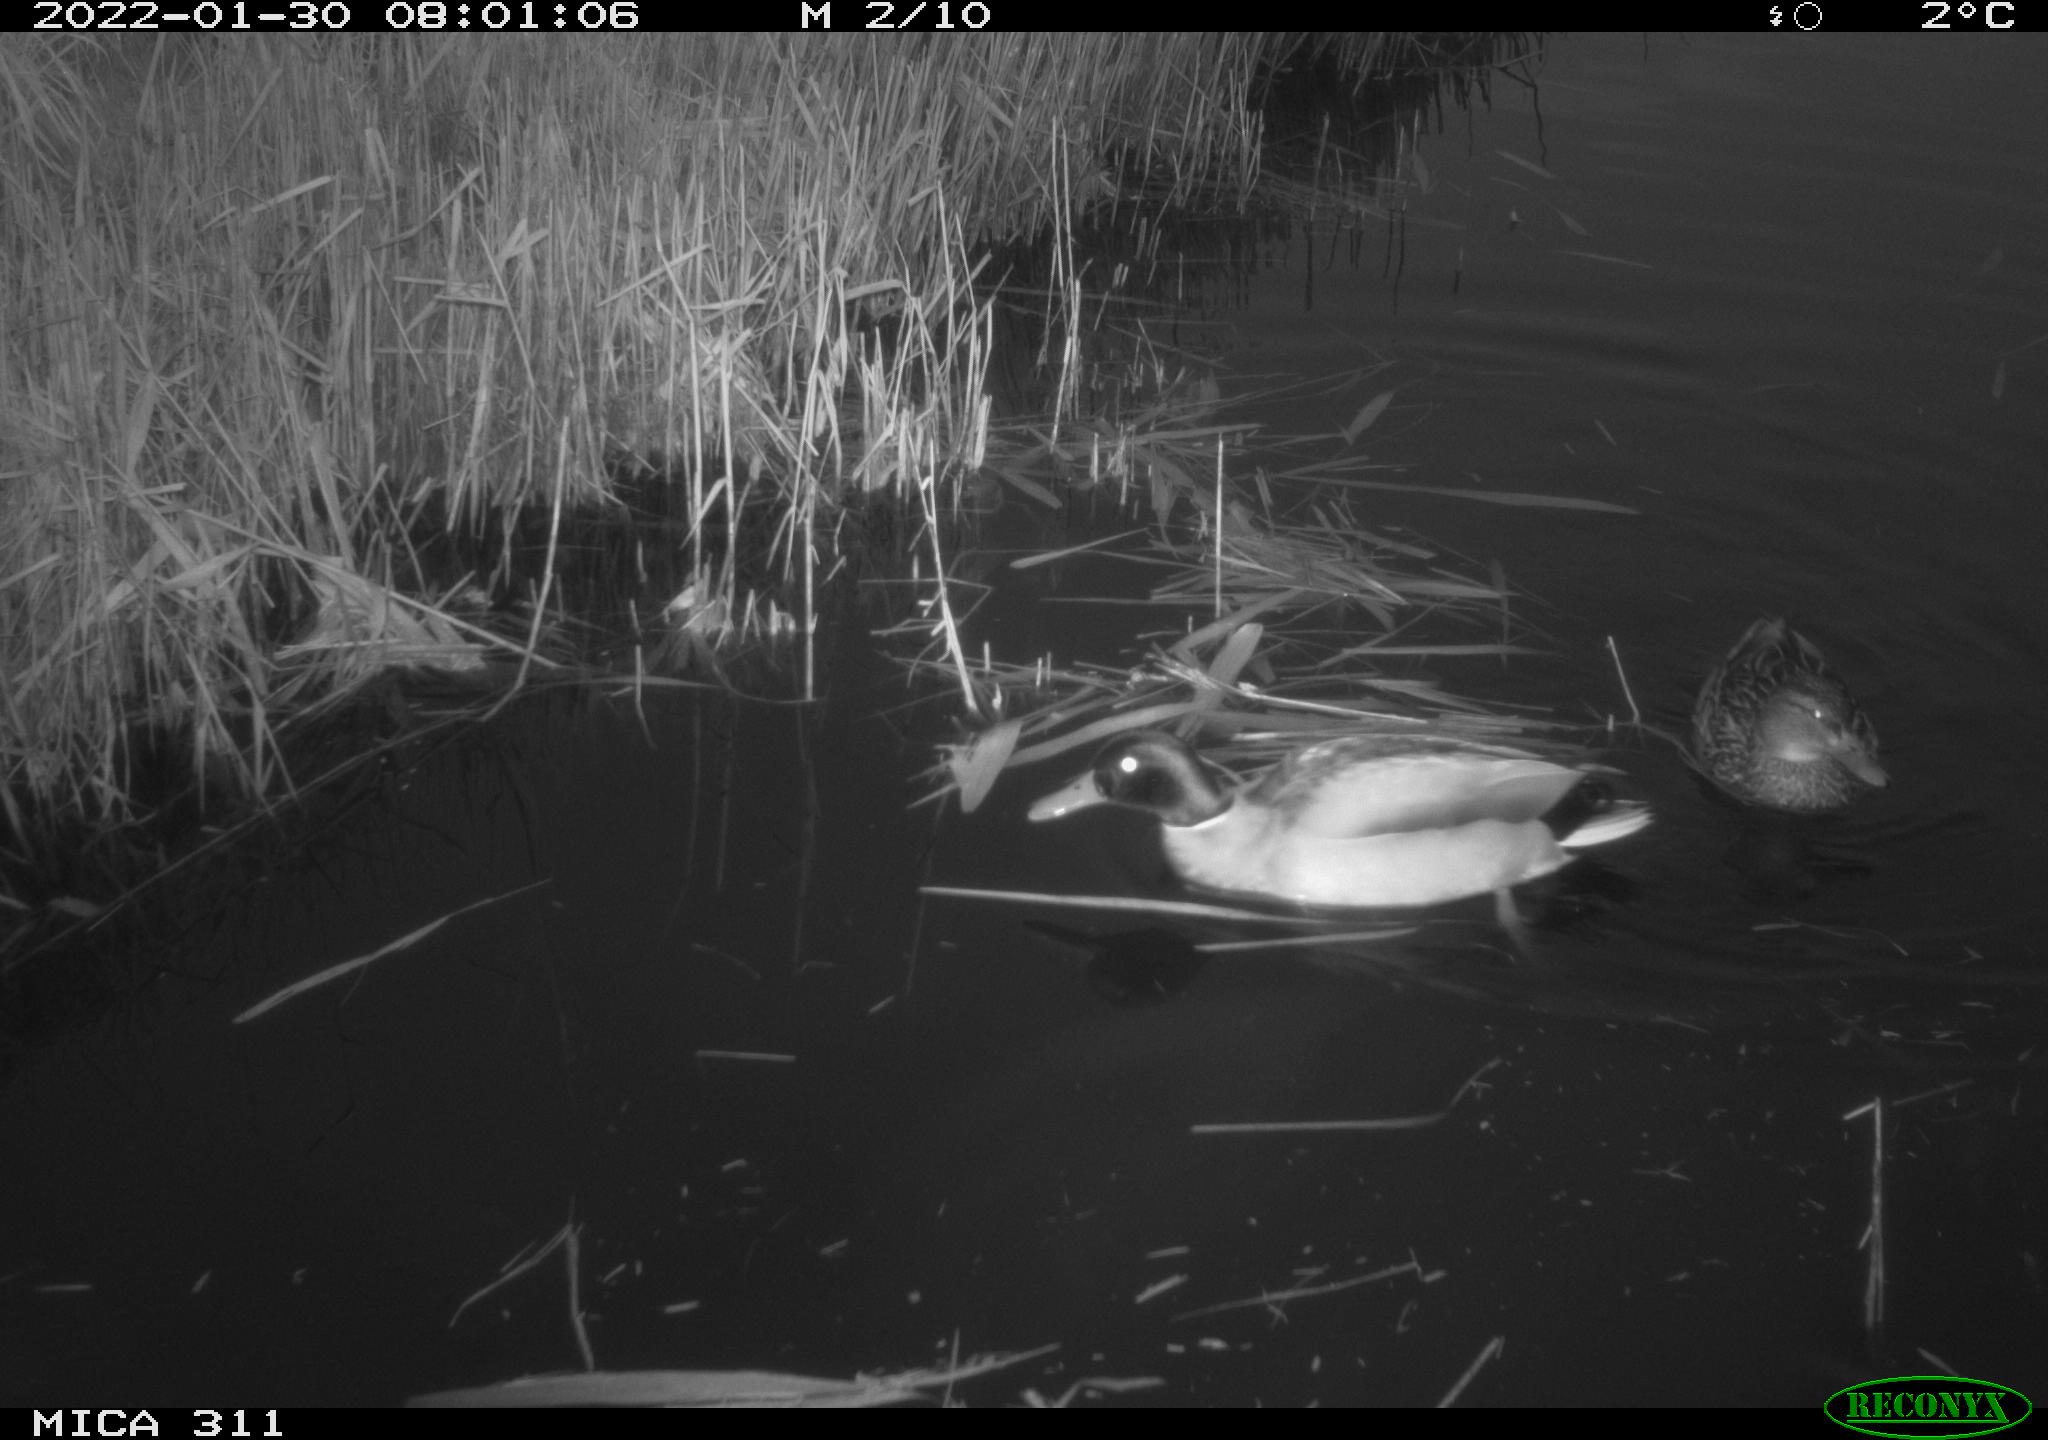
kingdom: Animalia
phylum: Chordata
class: Aves
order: Anseriformes
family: Anatidae
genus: Anas
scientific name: Anas
